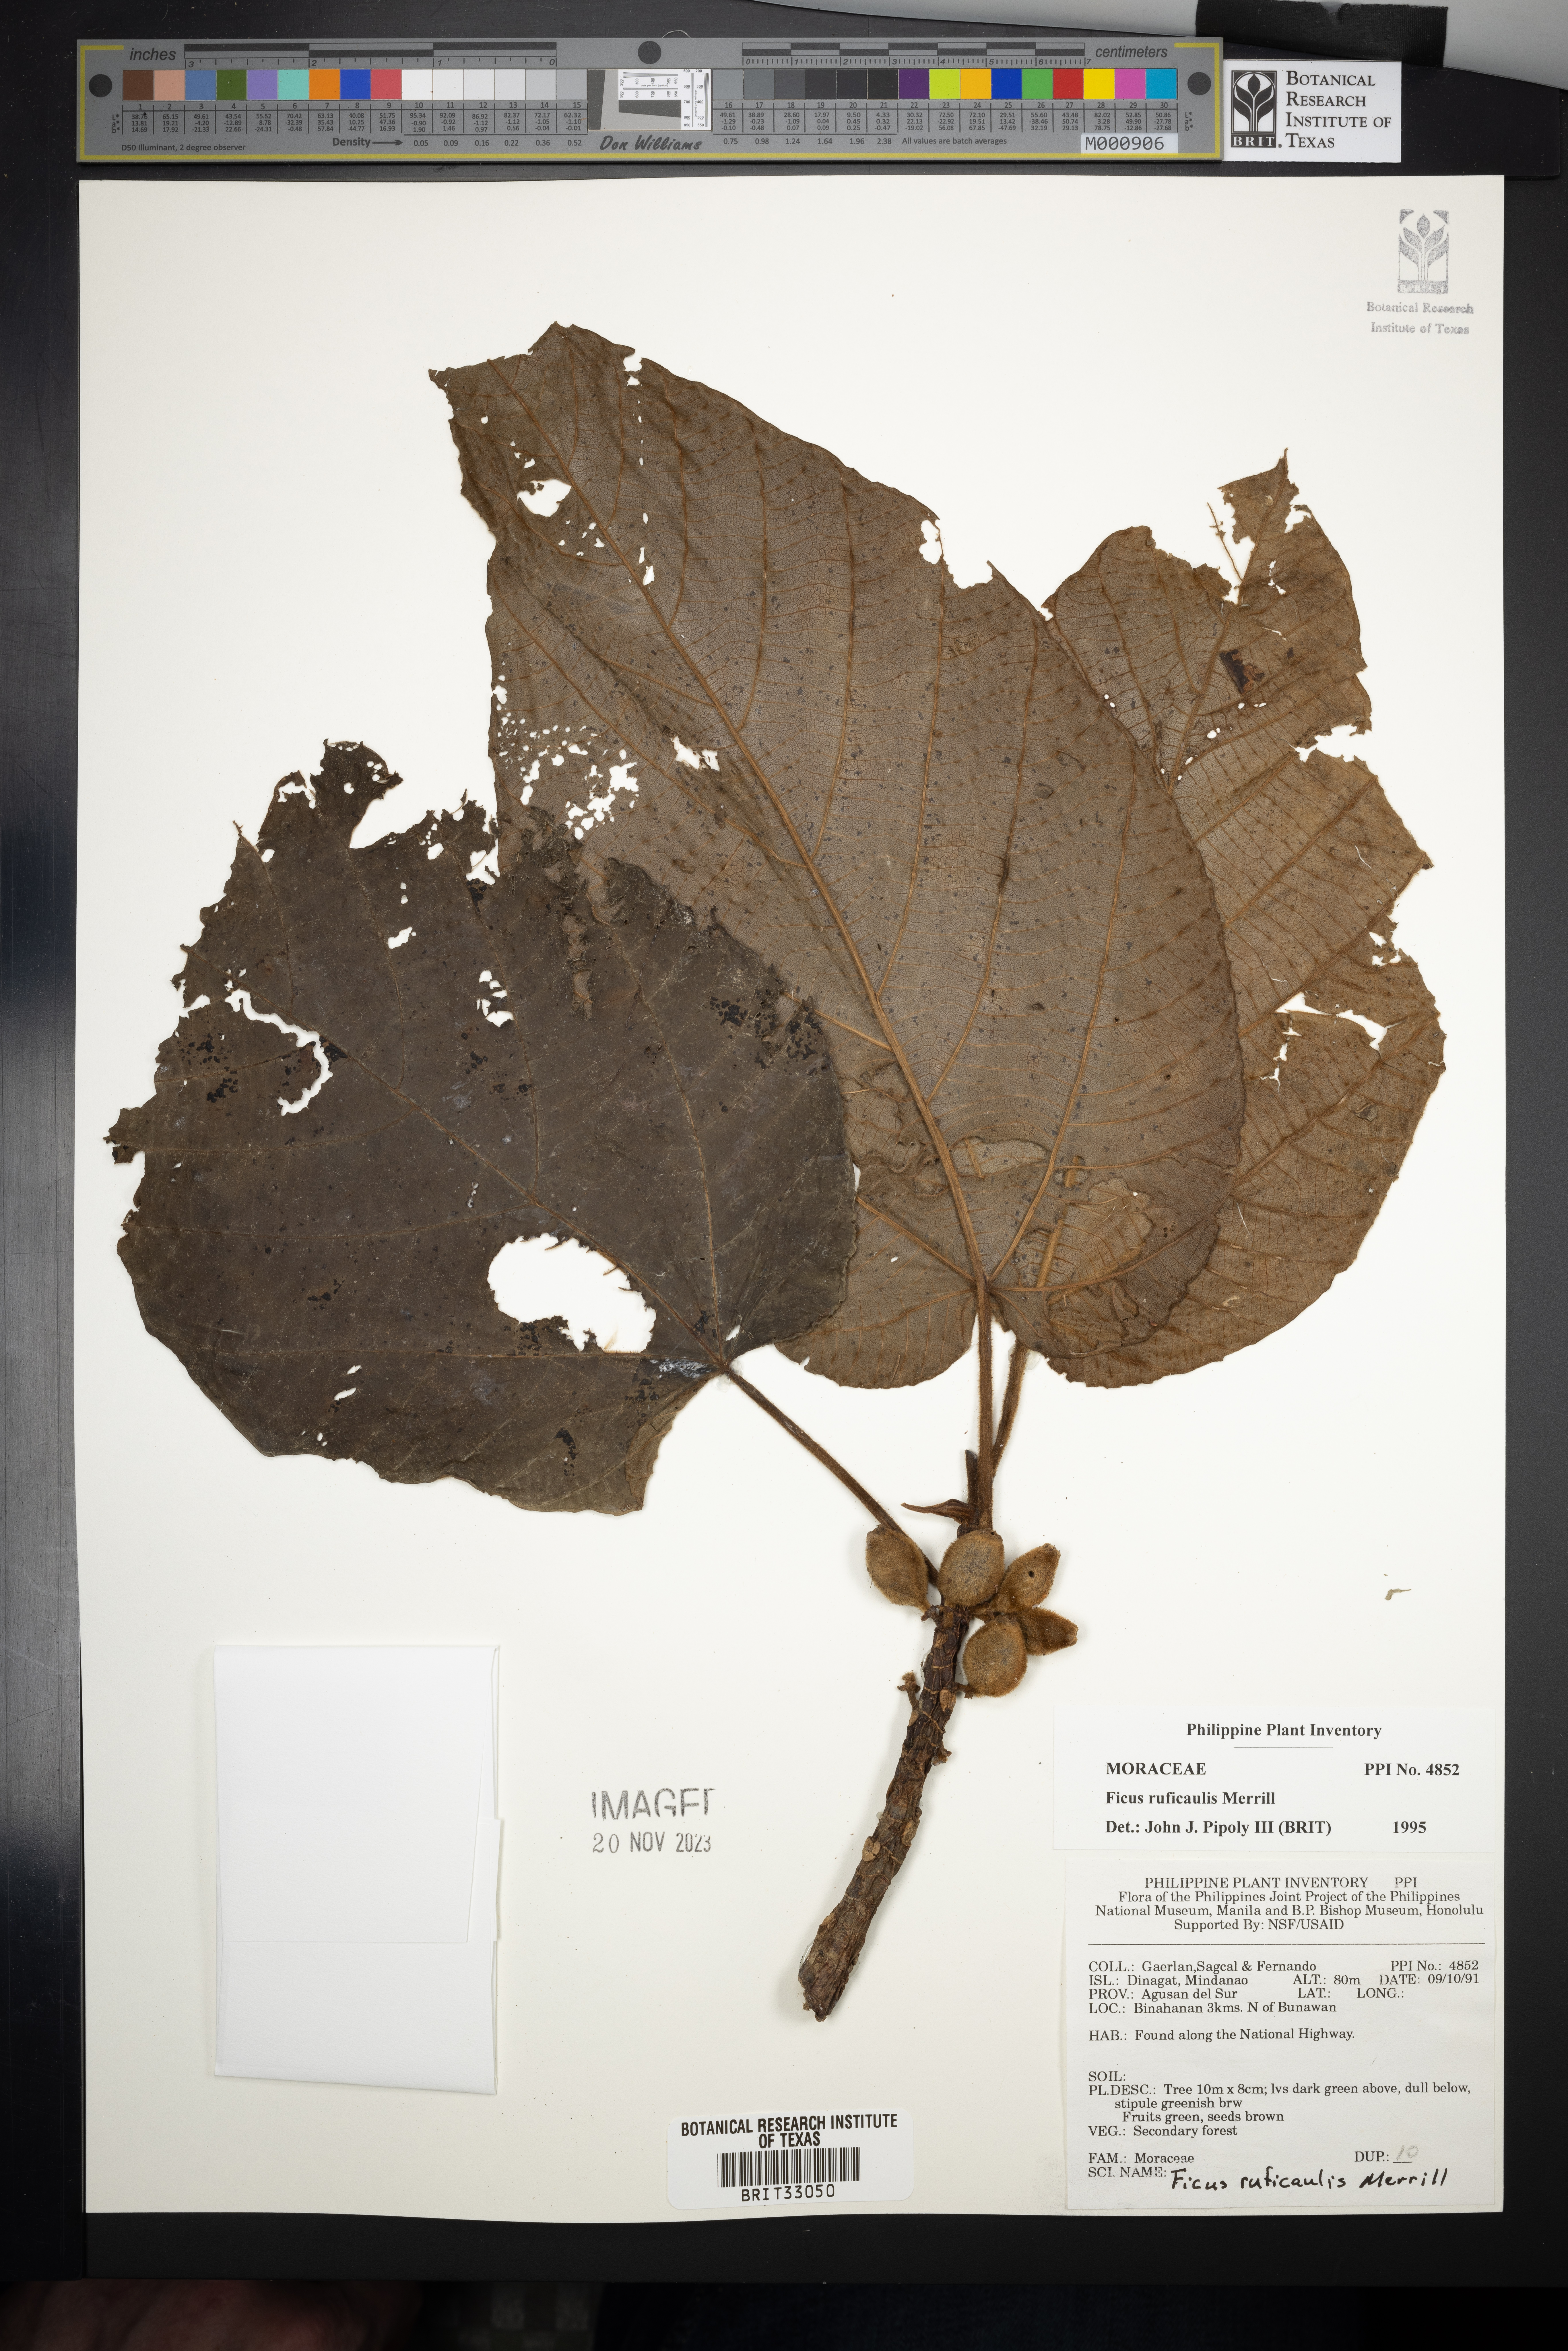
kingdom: Plantae
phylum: Tracheophyta
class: Magnoliopsida
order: Rosales
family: Moraceae
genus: Ficus
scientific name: Ficus ruficaulis
